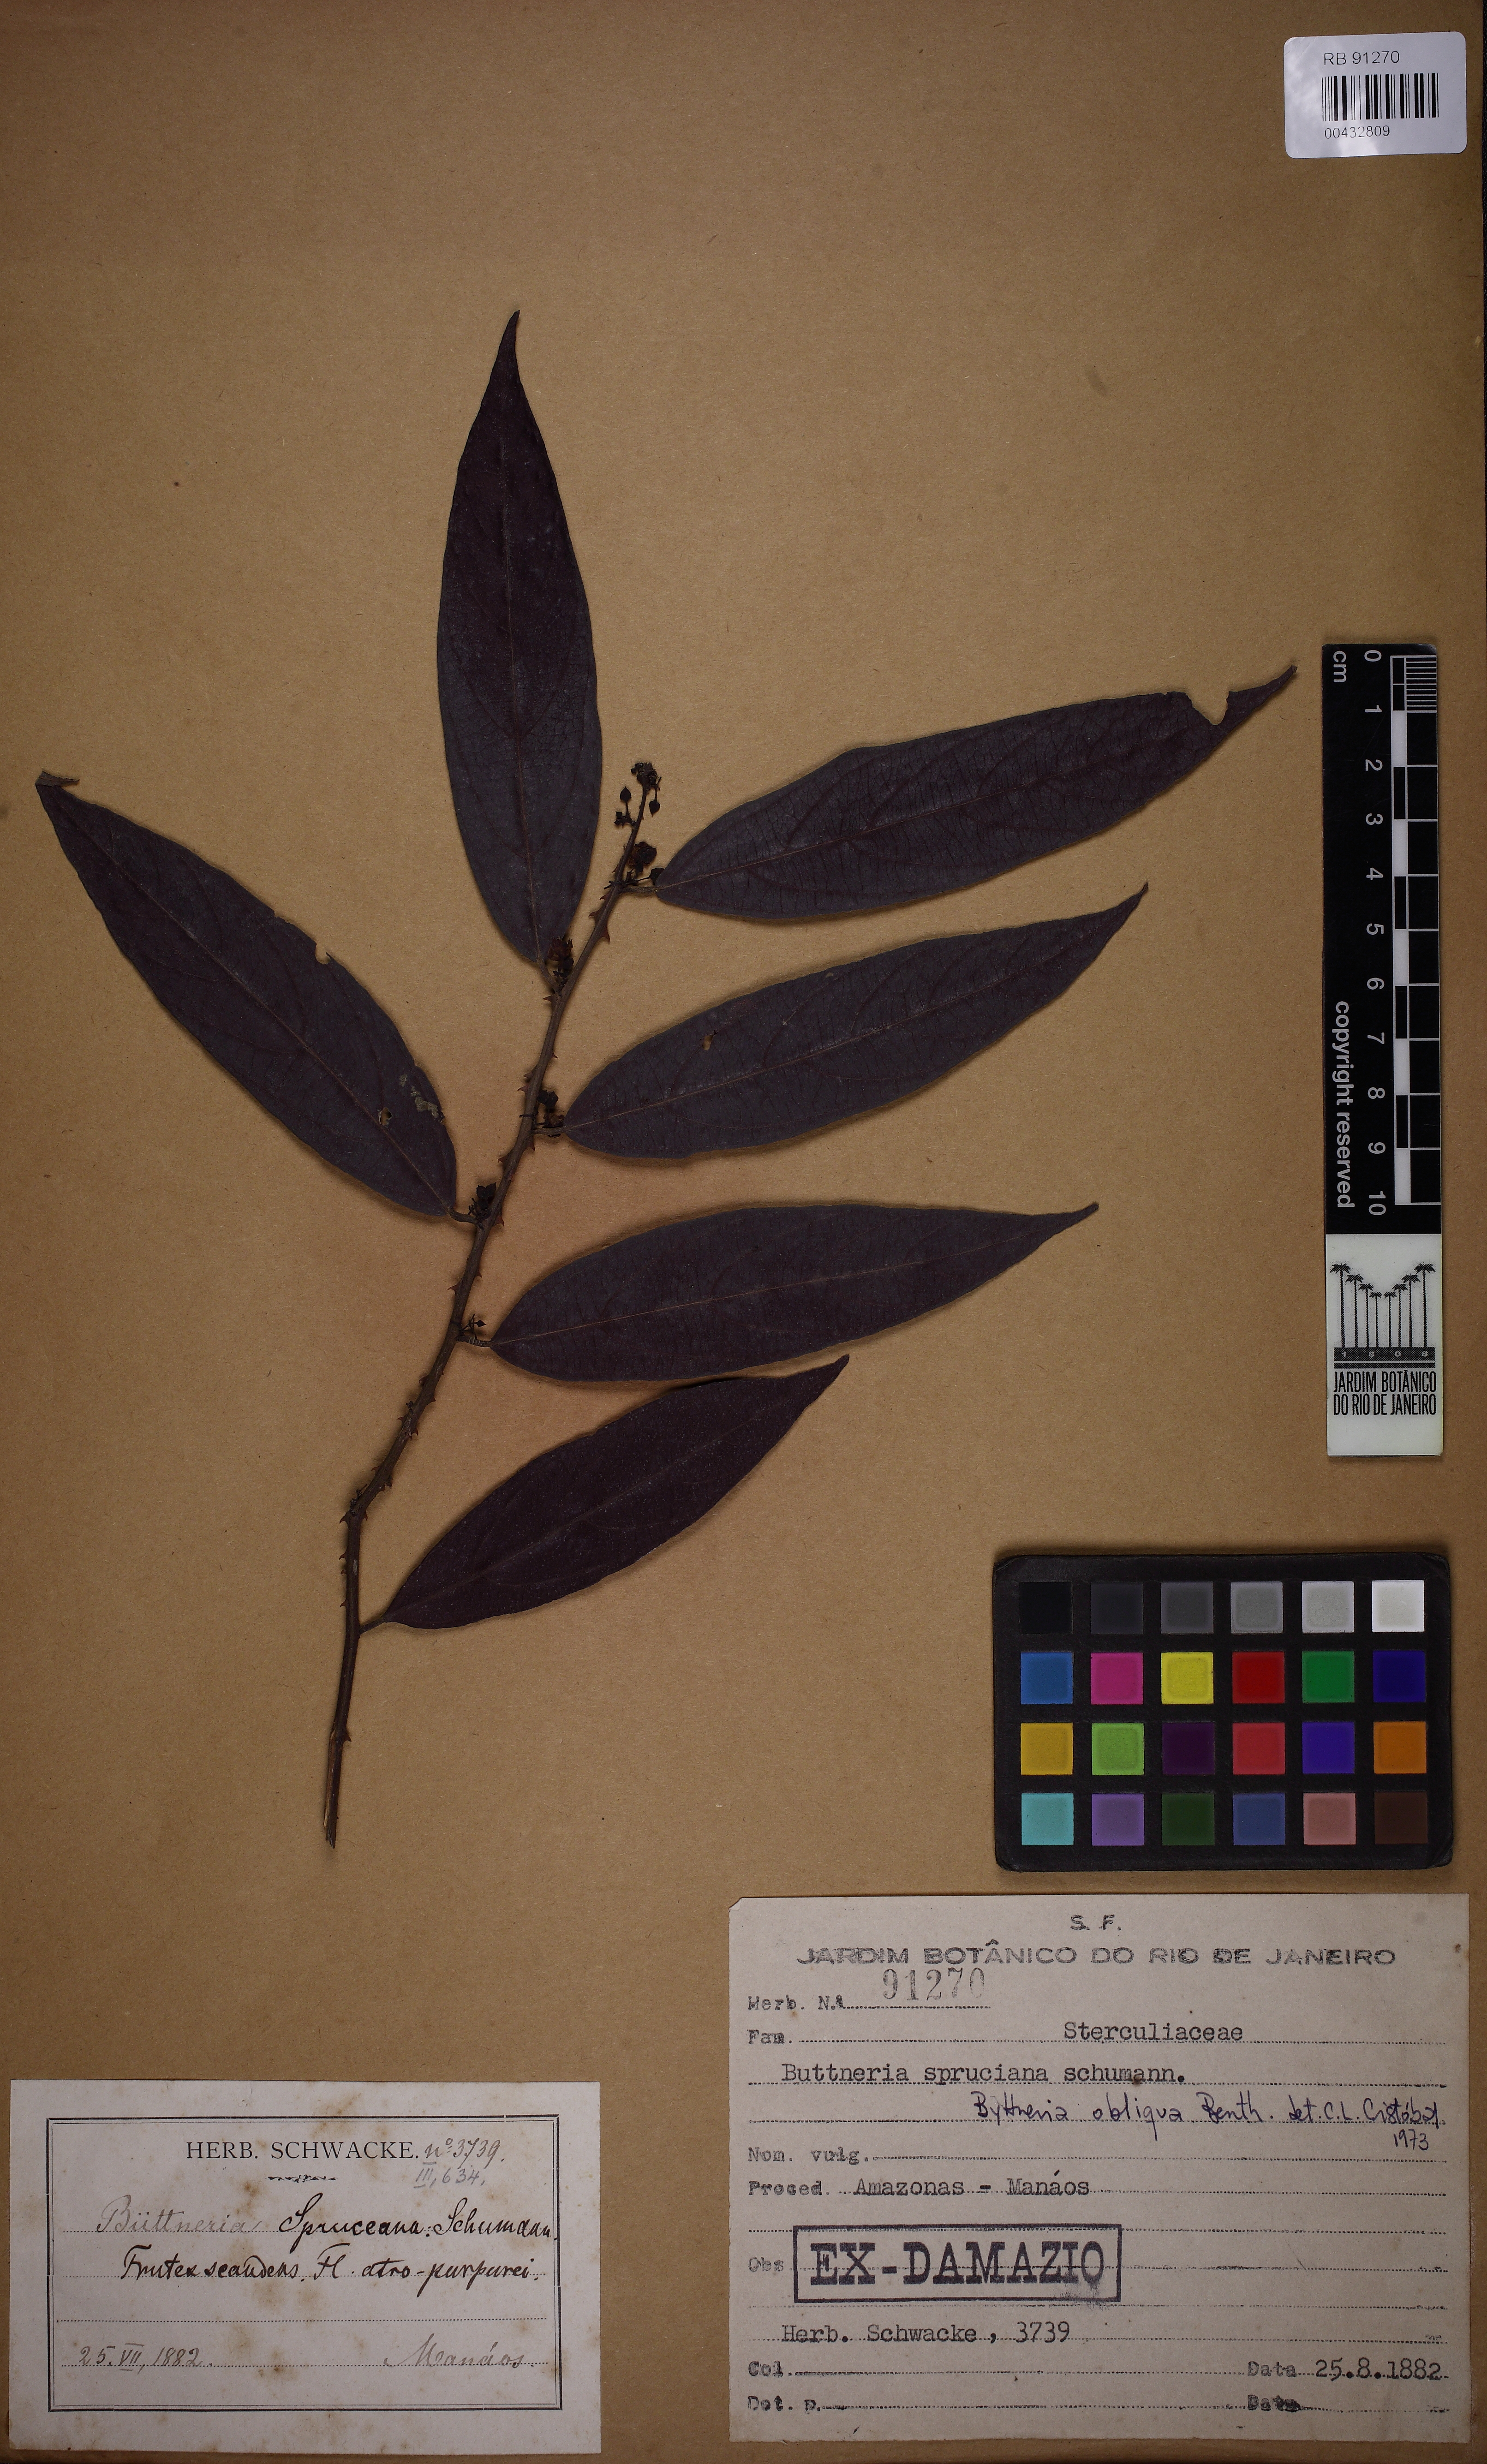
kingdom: Plantae
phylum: Tracheophyta
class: Magnoliopsida
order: Malvales
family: Malvaceae
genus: Byttneria
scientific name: Byttneria obliqua
